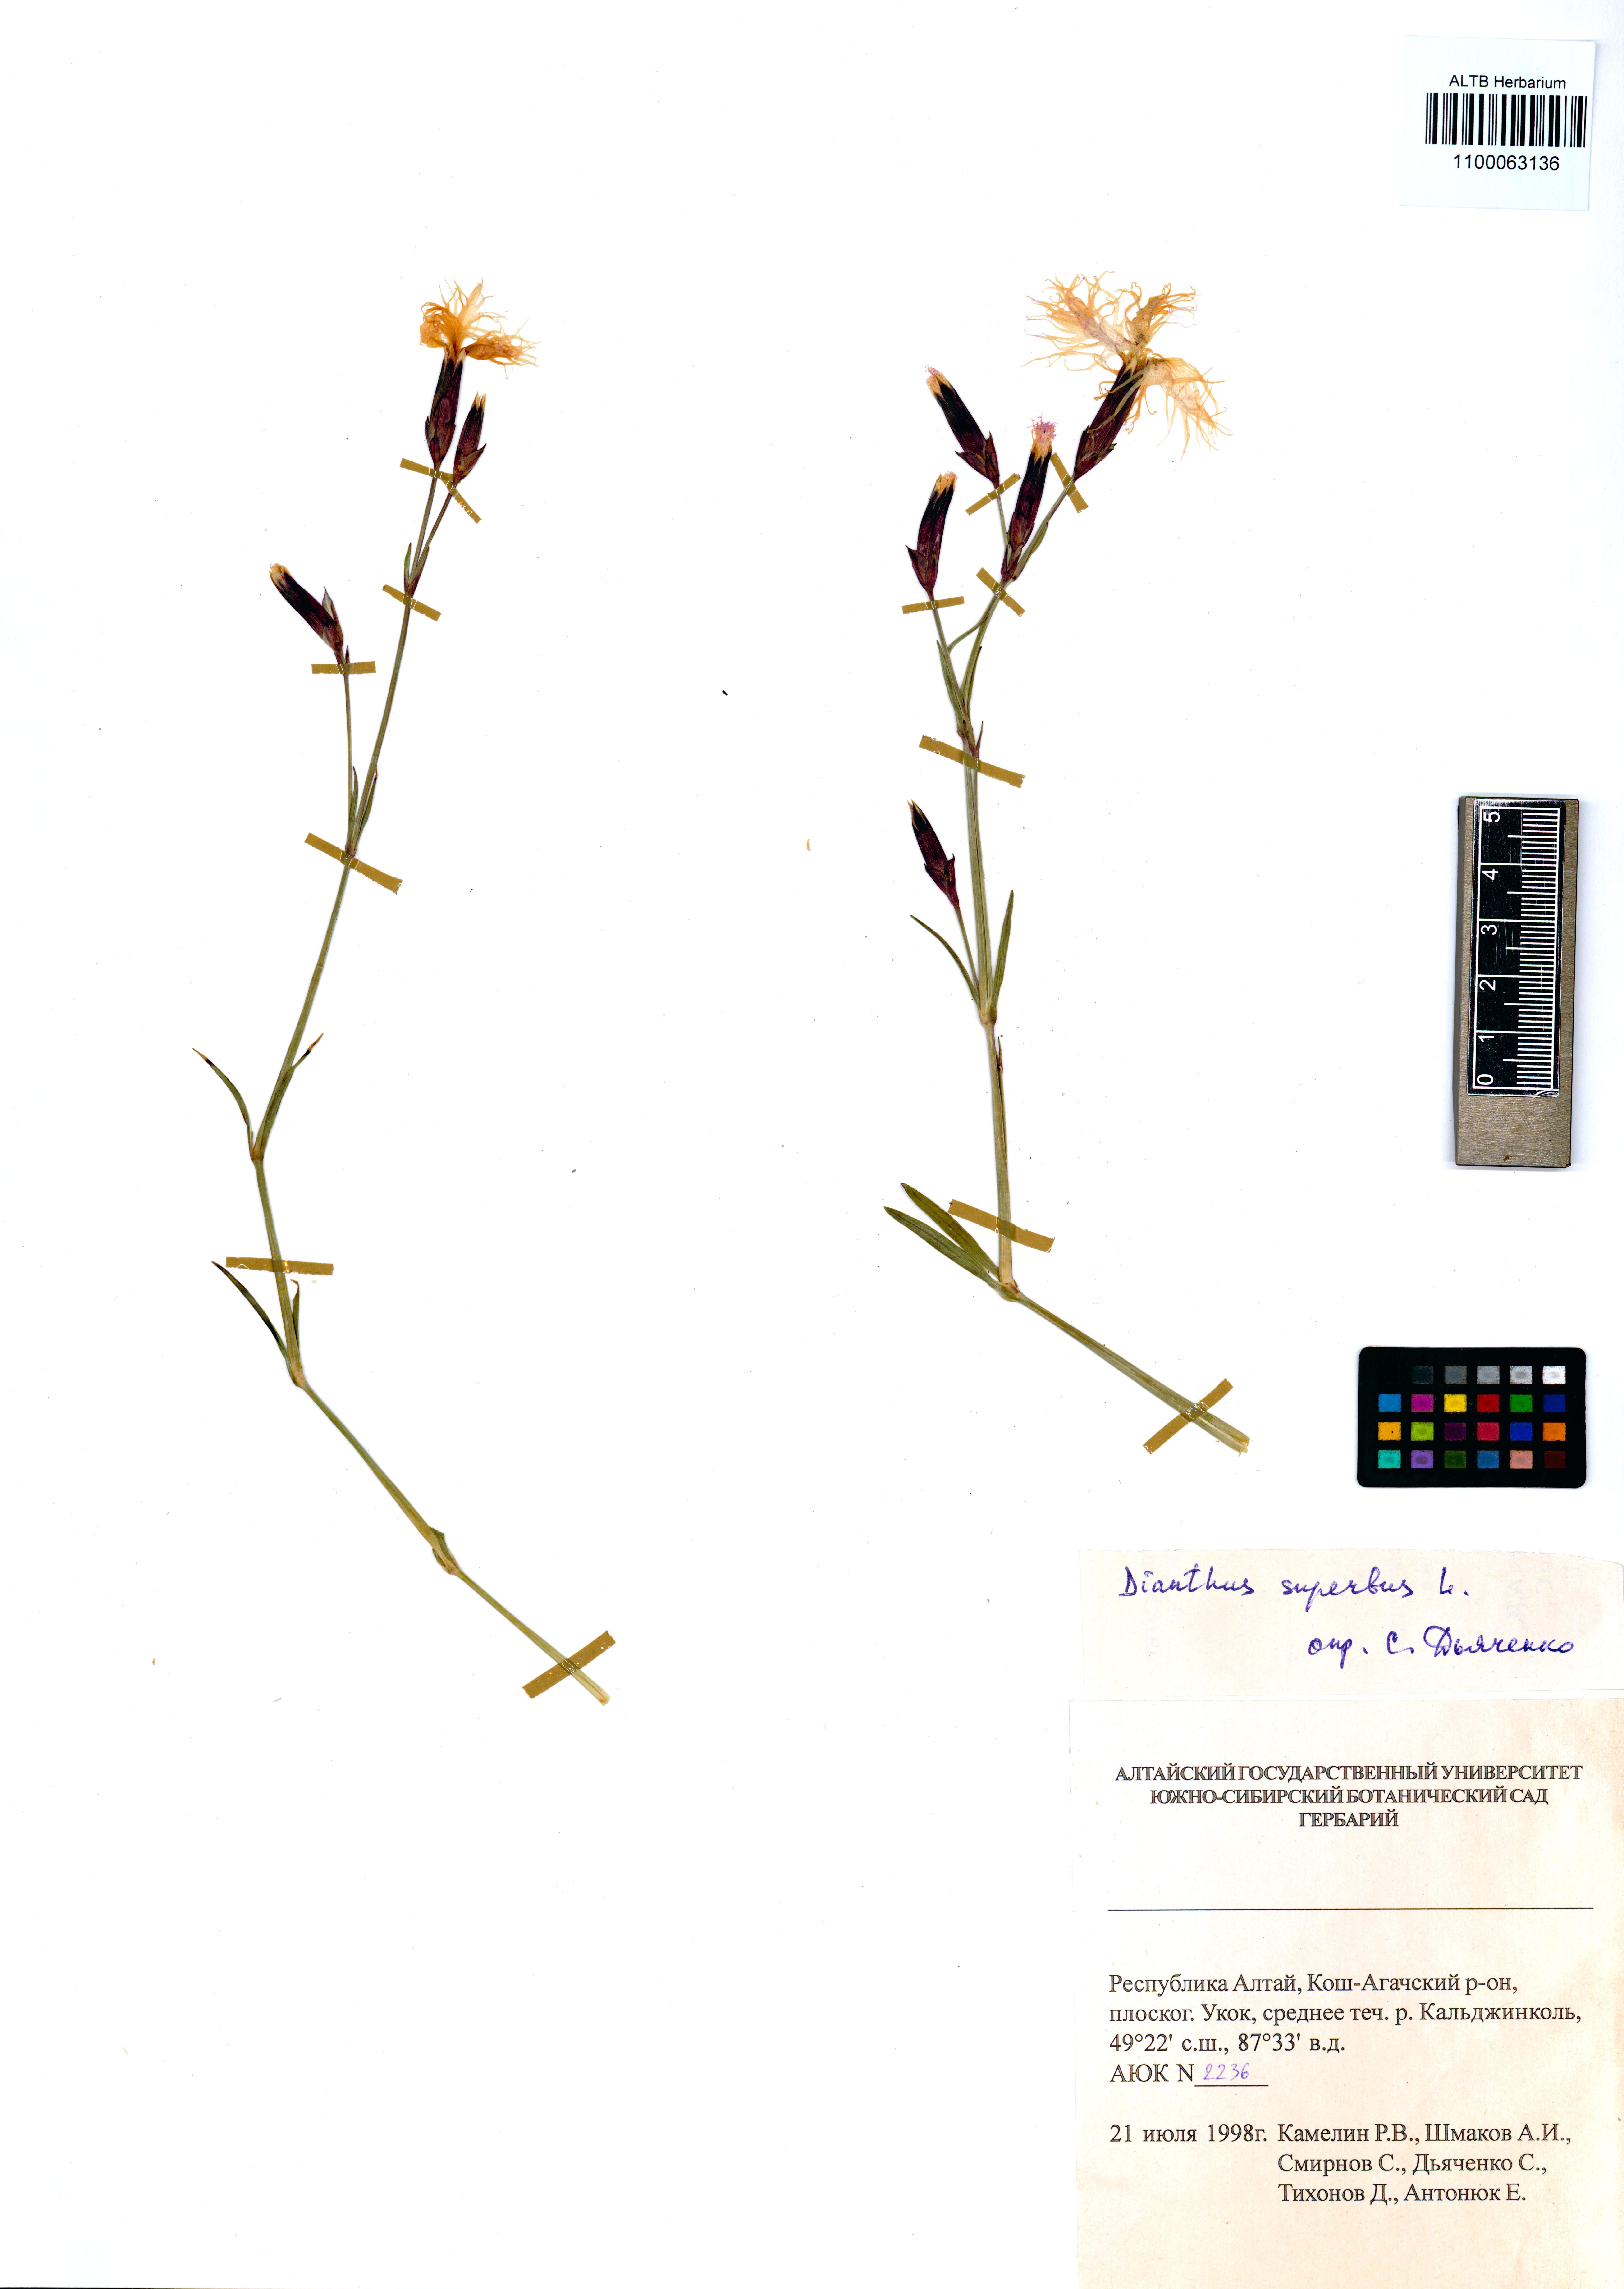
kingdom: Plantae
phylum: Tracheophyta
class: Magnoliopsida
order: Caryophyllales
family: Caryophyllaceae
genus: Dianthus
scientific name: Dianthus superbus
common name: Fringed pink
